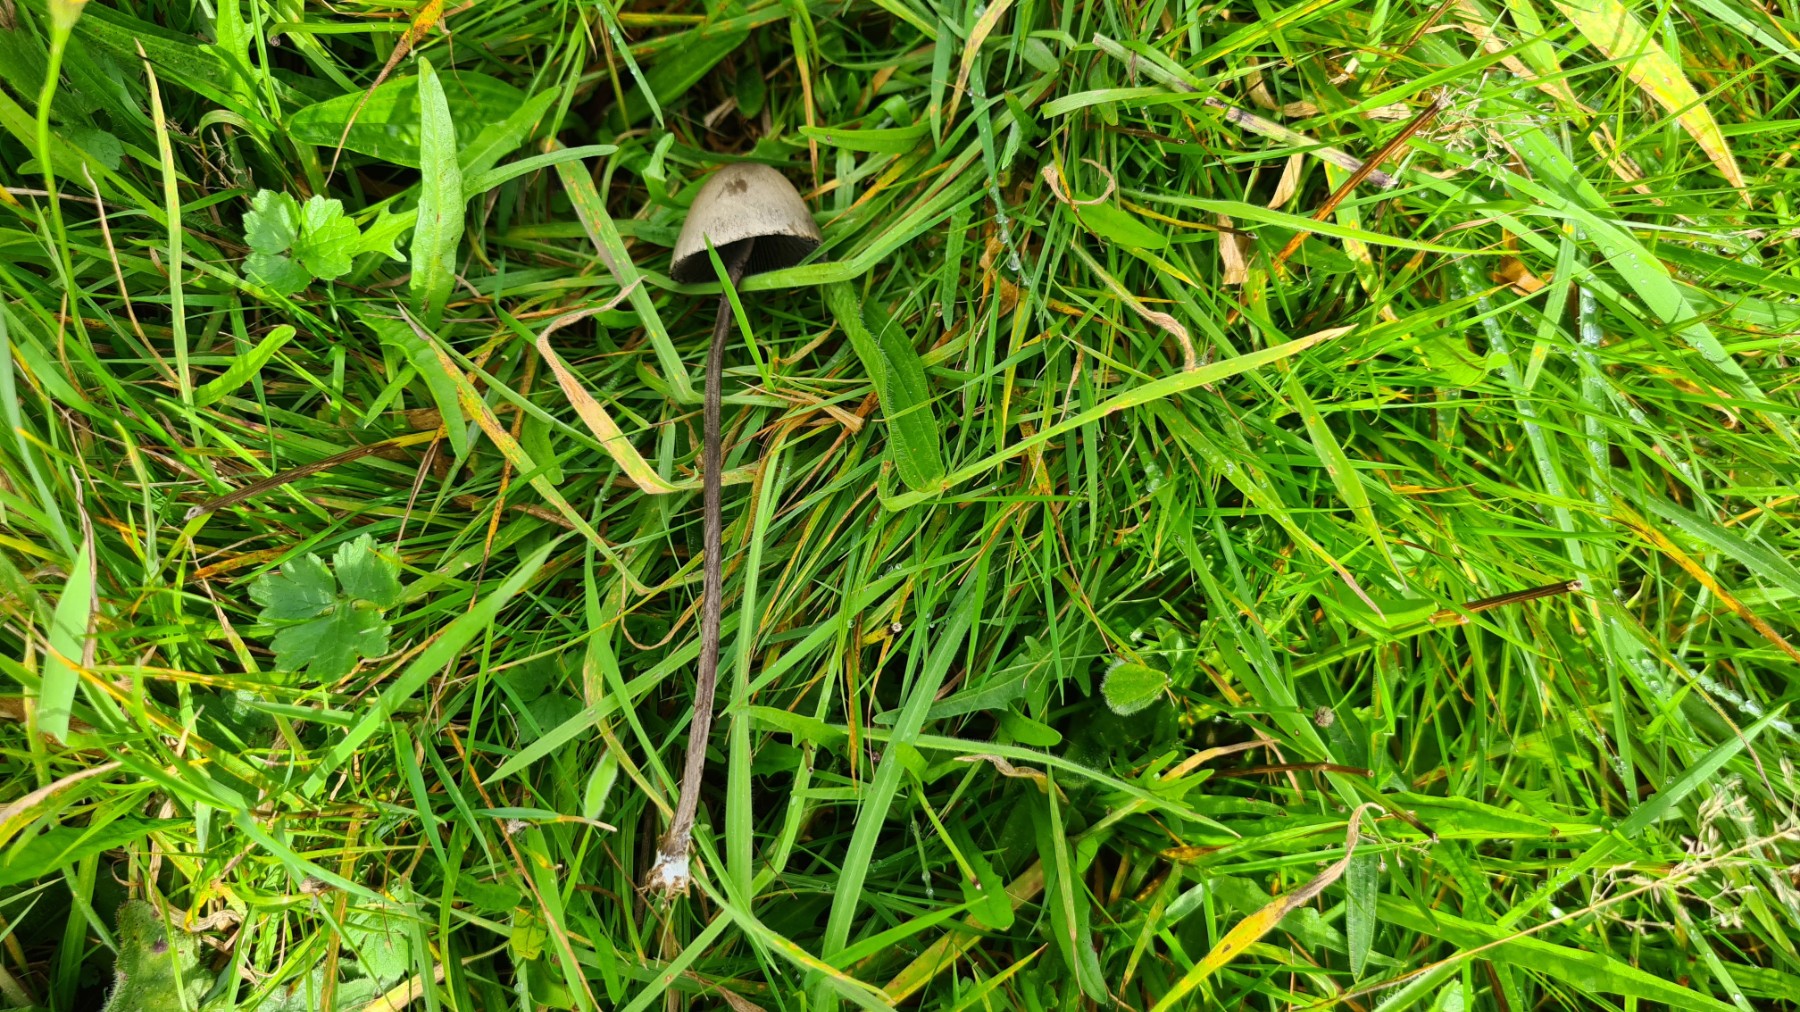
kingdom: Fungi
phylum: Basidiomycota
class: Agaricomycetes
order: Agaricales
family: Bolbitiaceae
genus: Panaeolus
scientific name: Panaeolus
